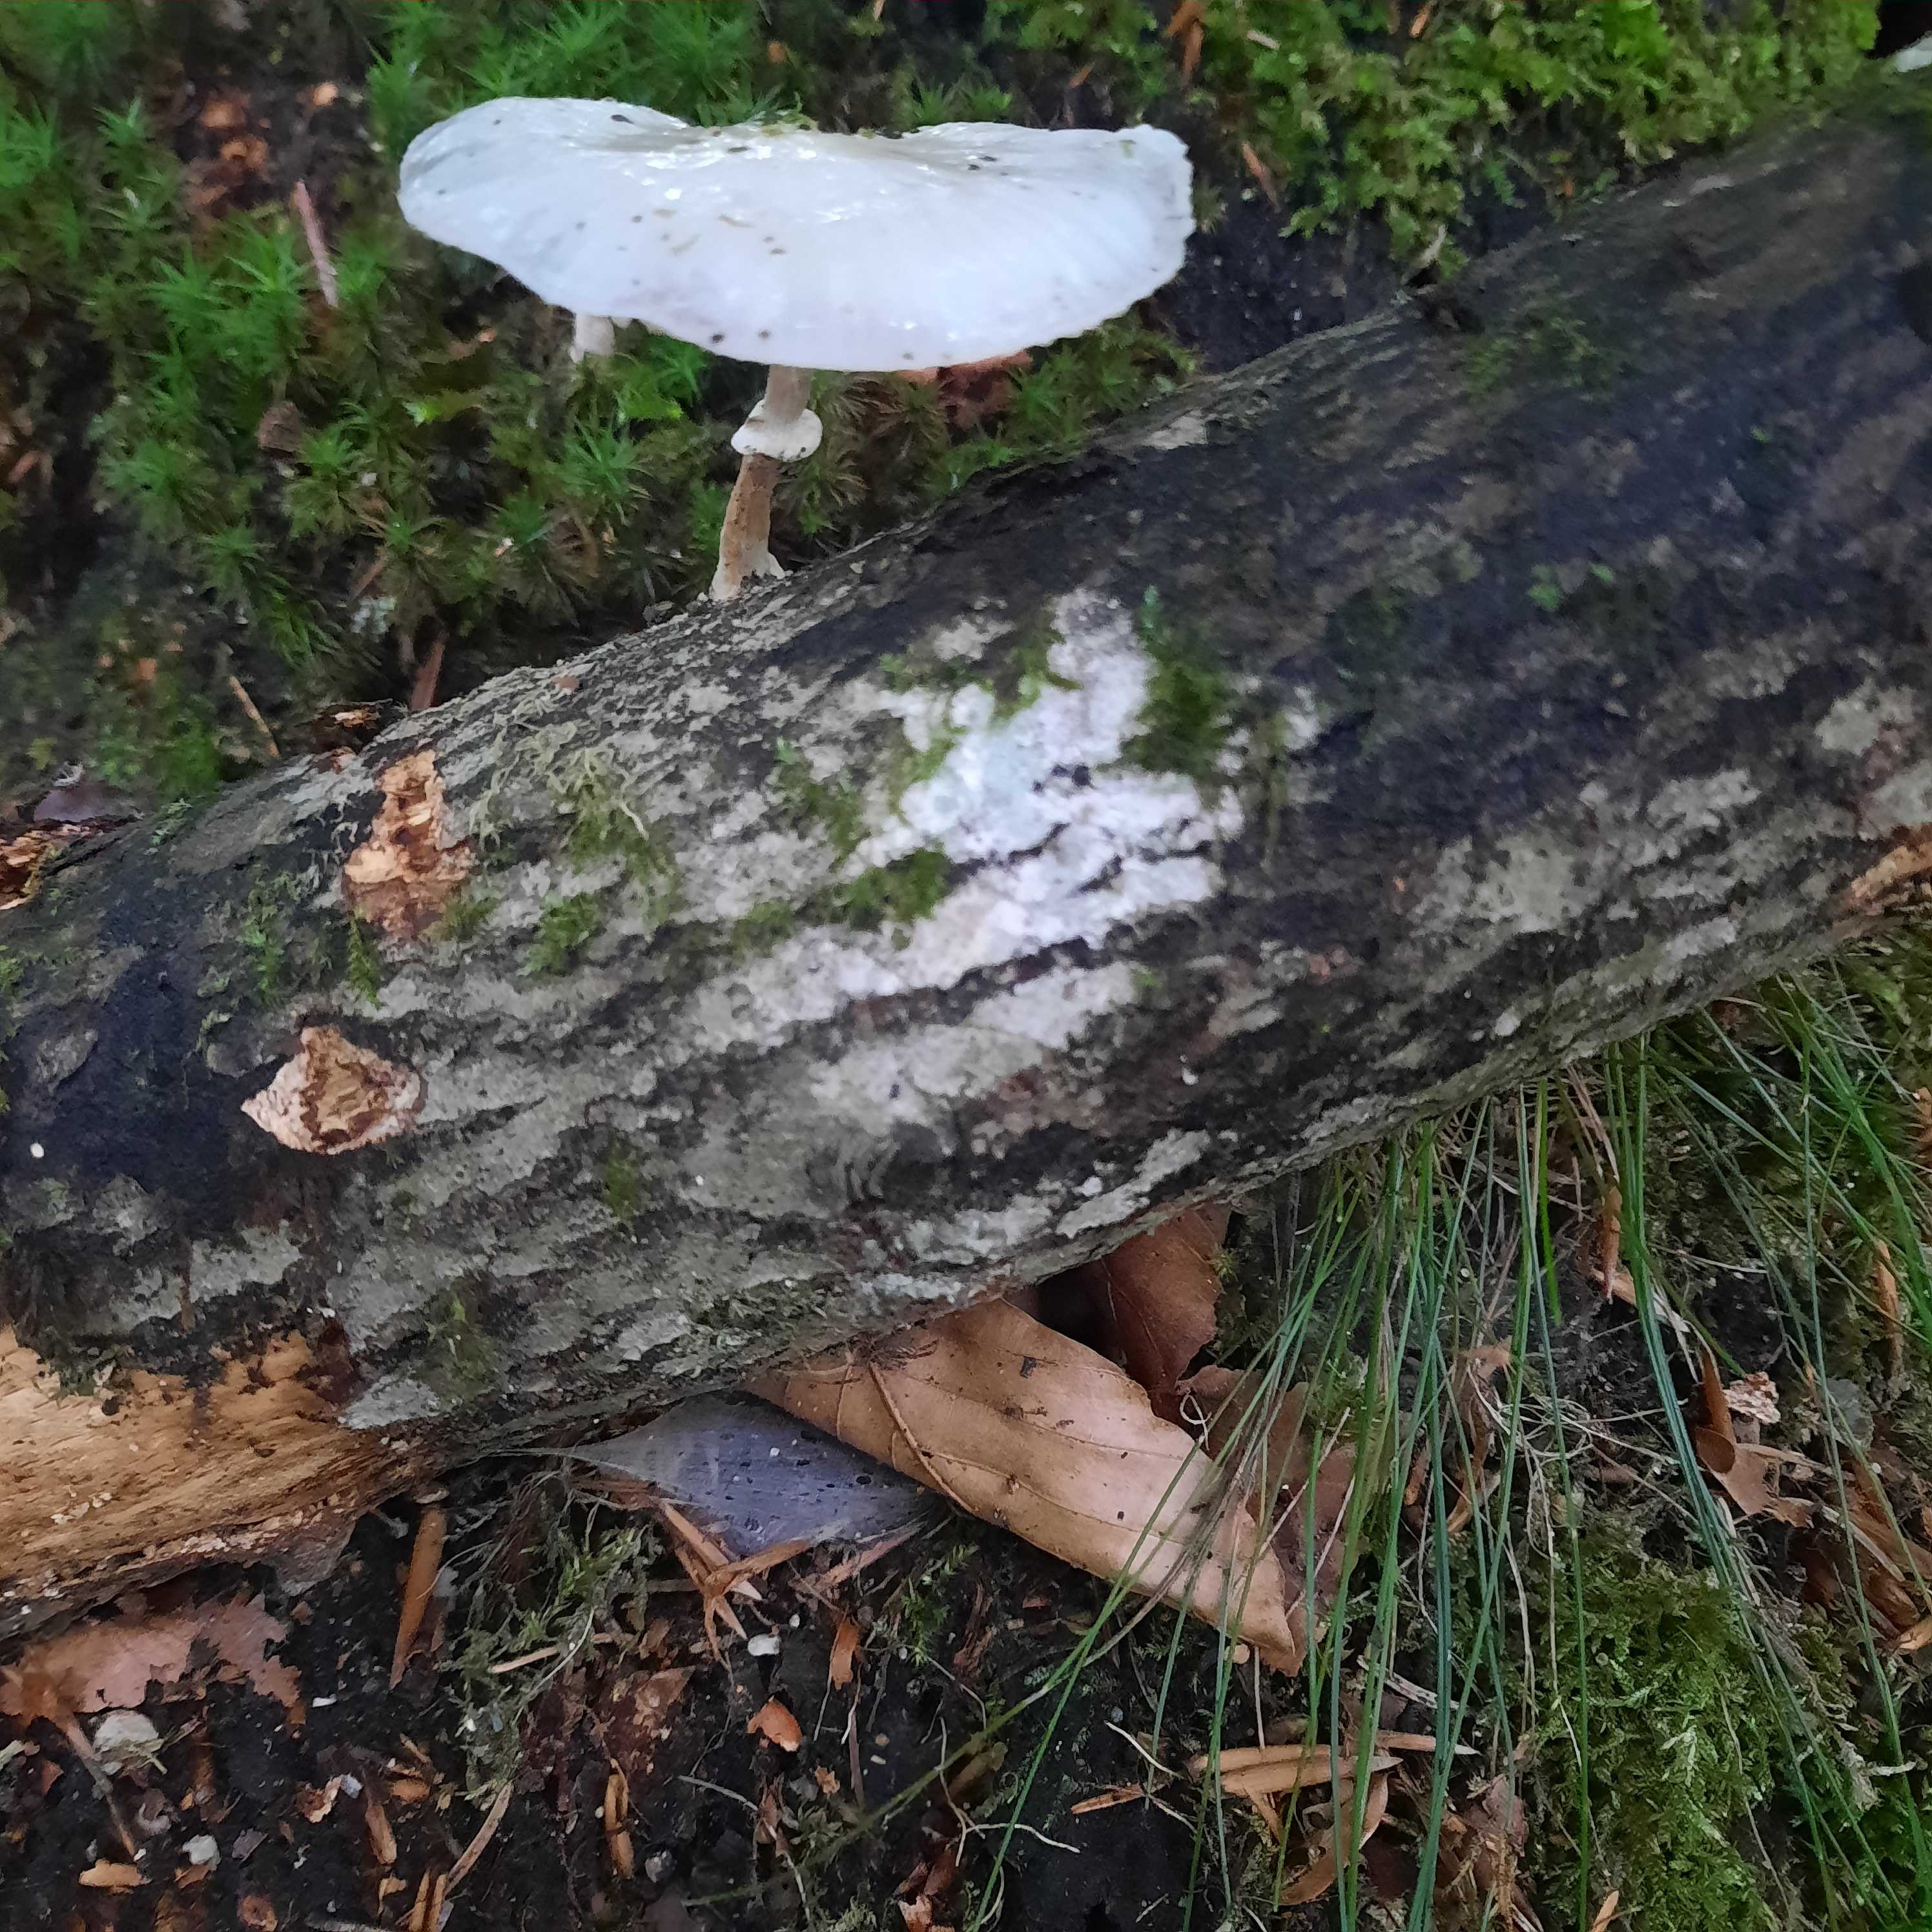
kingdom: Fungi
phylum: Basidiomycota
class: Agaricomycetes
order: Agaricales
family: Physalacriaceae
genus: Mucidula
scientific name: Mucidula mucida
